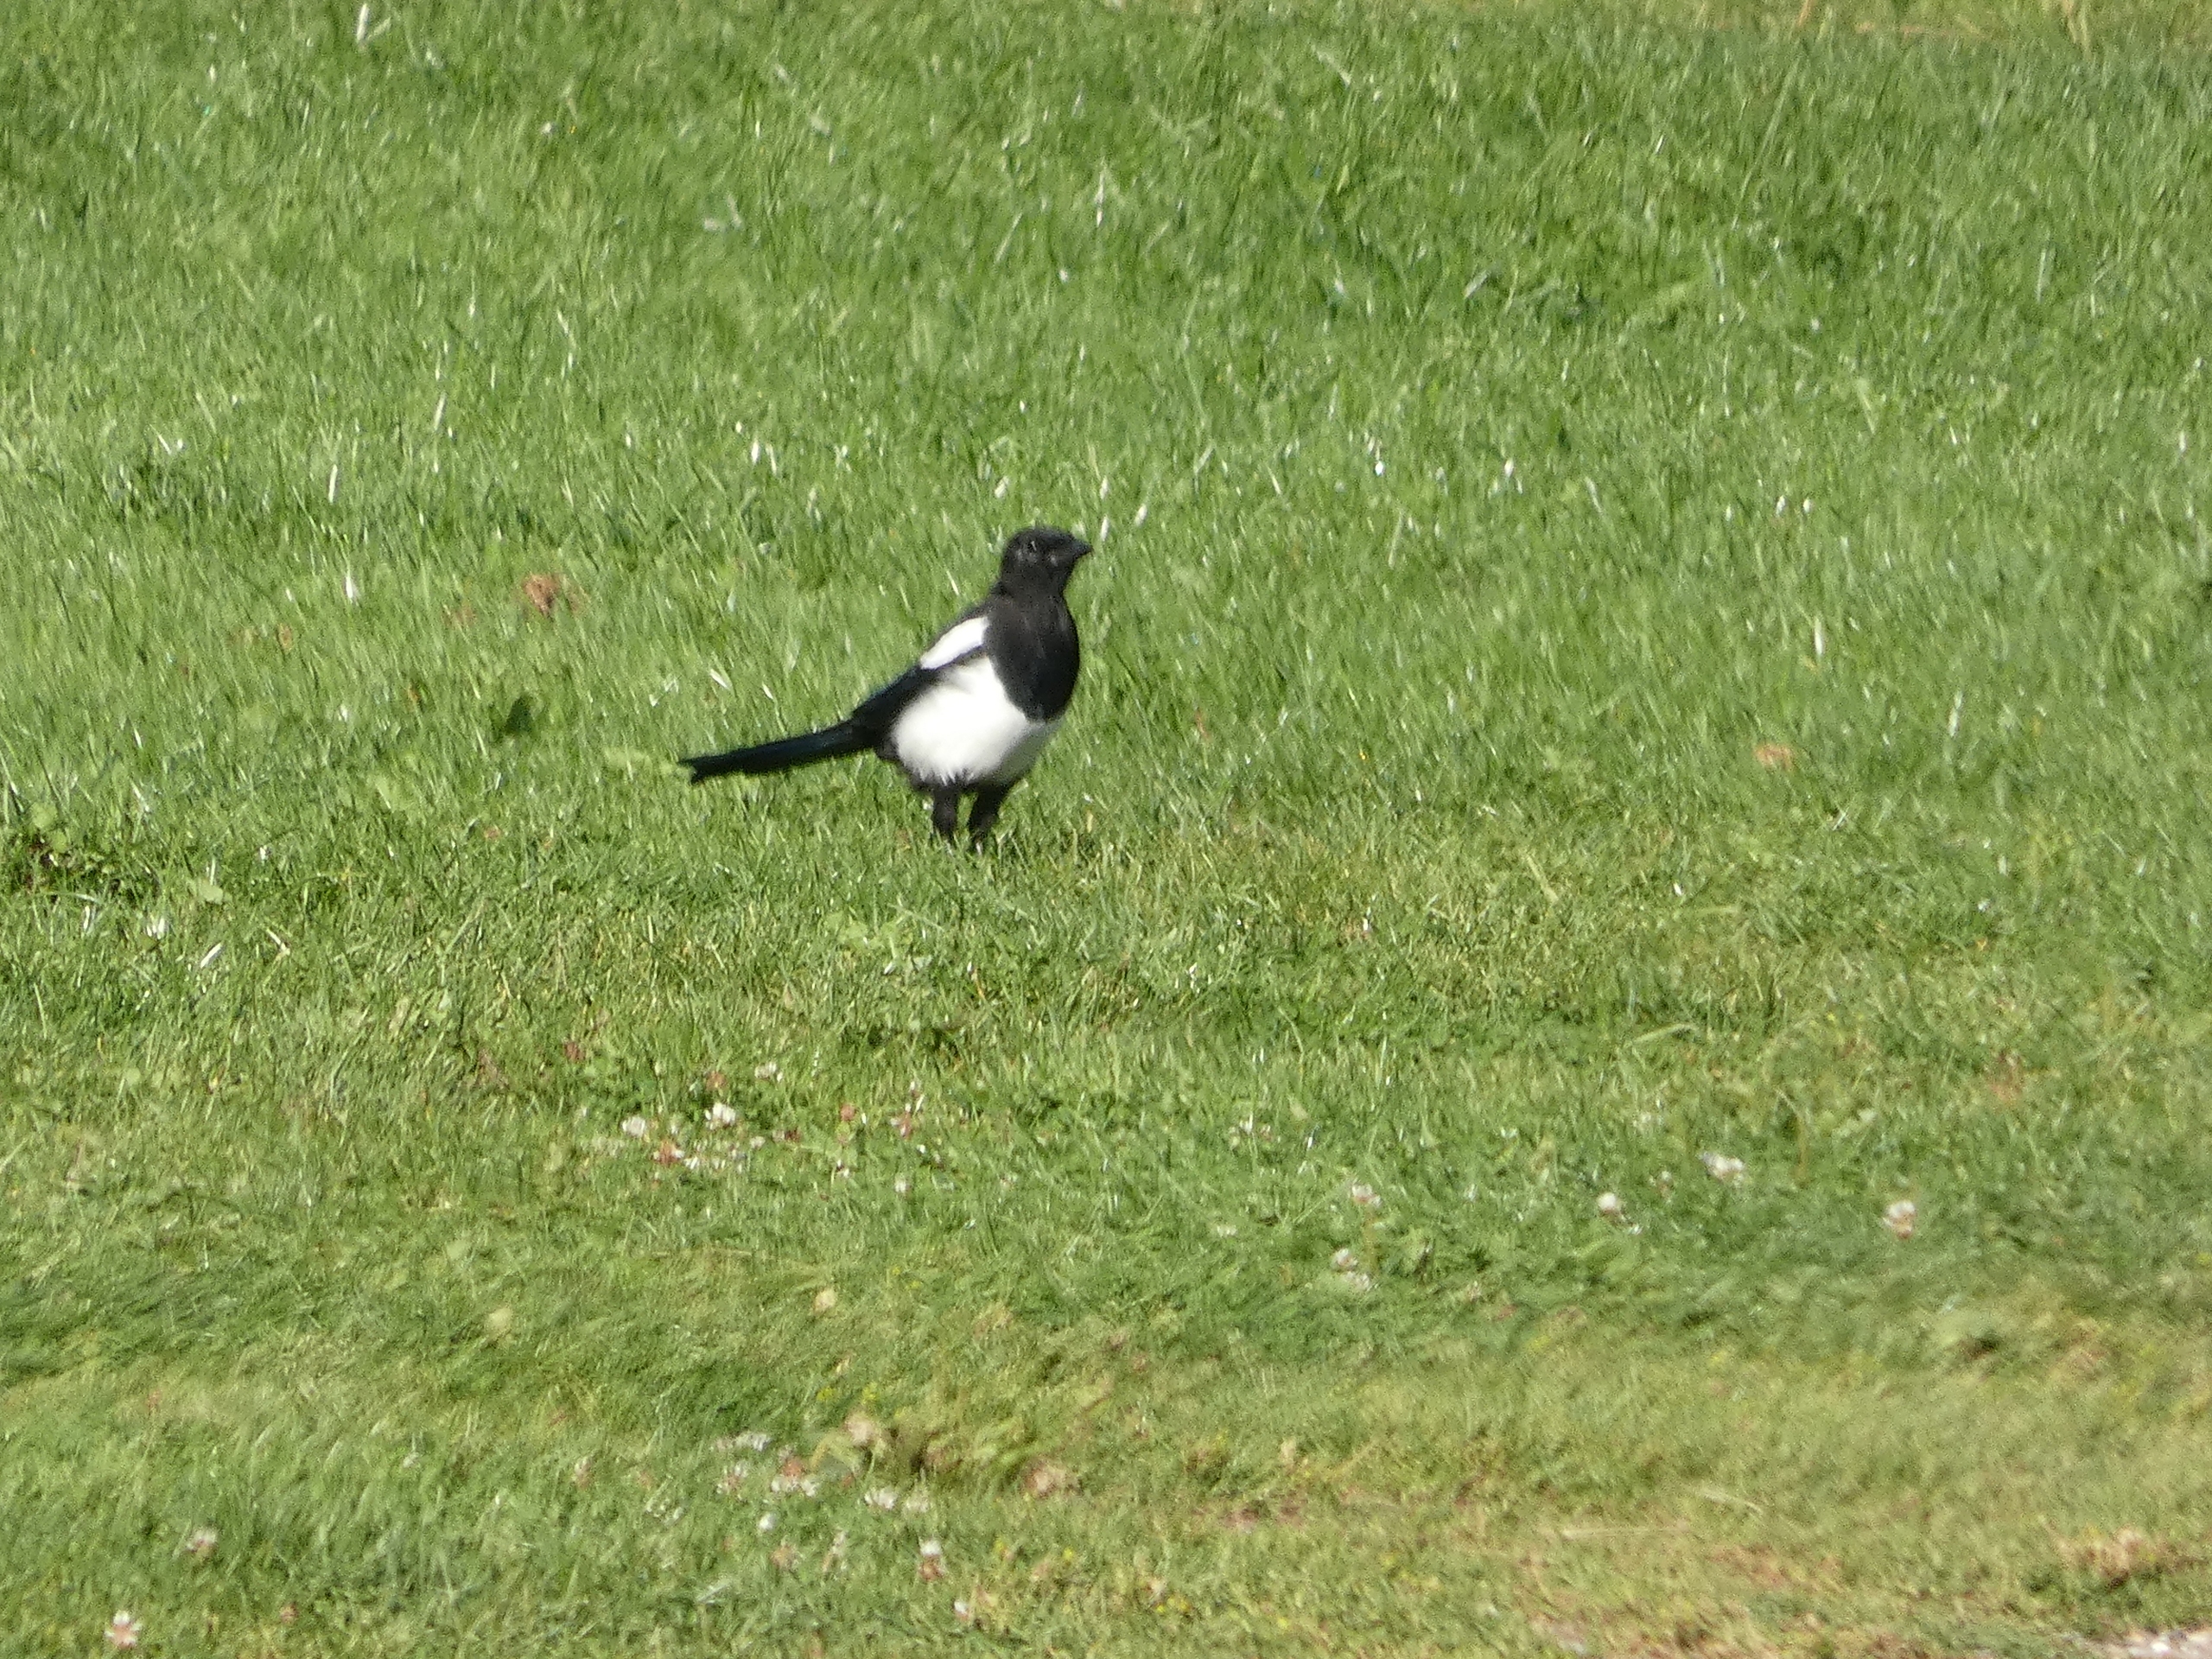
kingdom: Animalia
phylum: Chordata
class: Aves
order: Passeriformes
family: Corvidae
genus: Pica
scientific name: Pica pica
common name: Husskade
